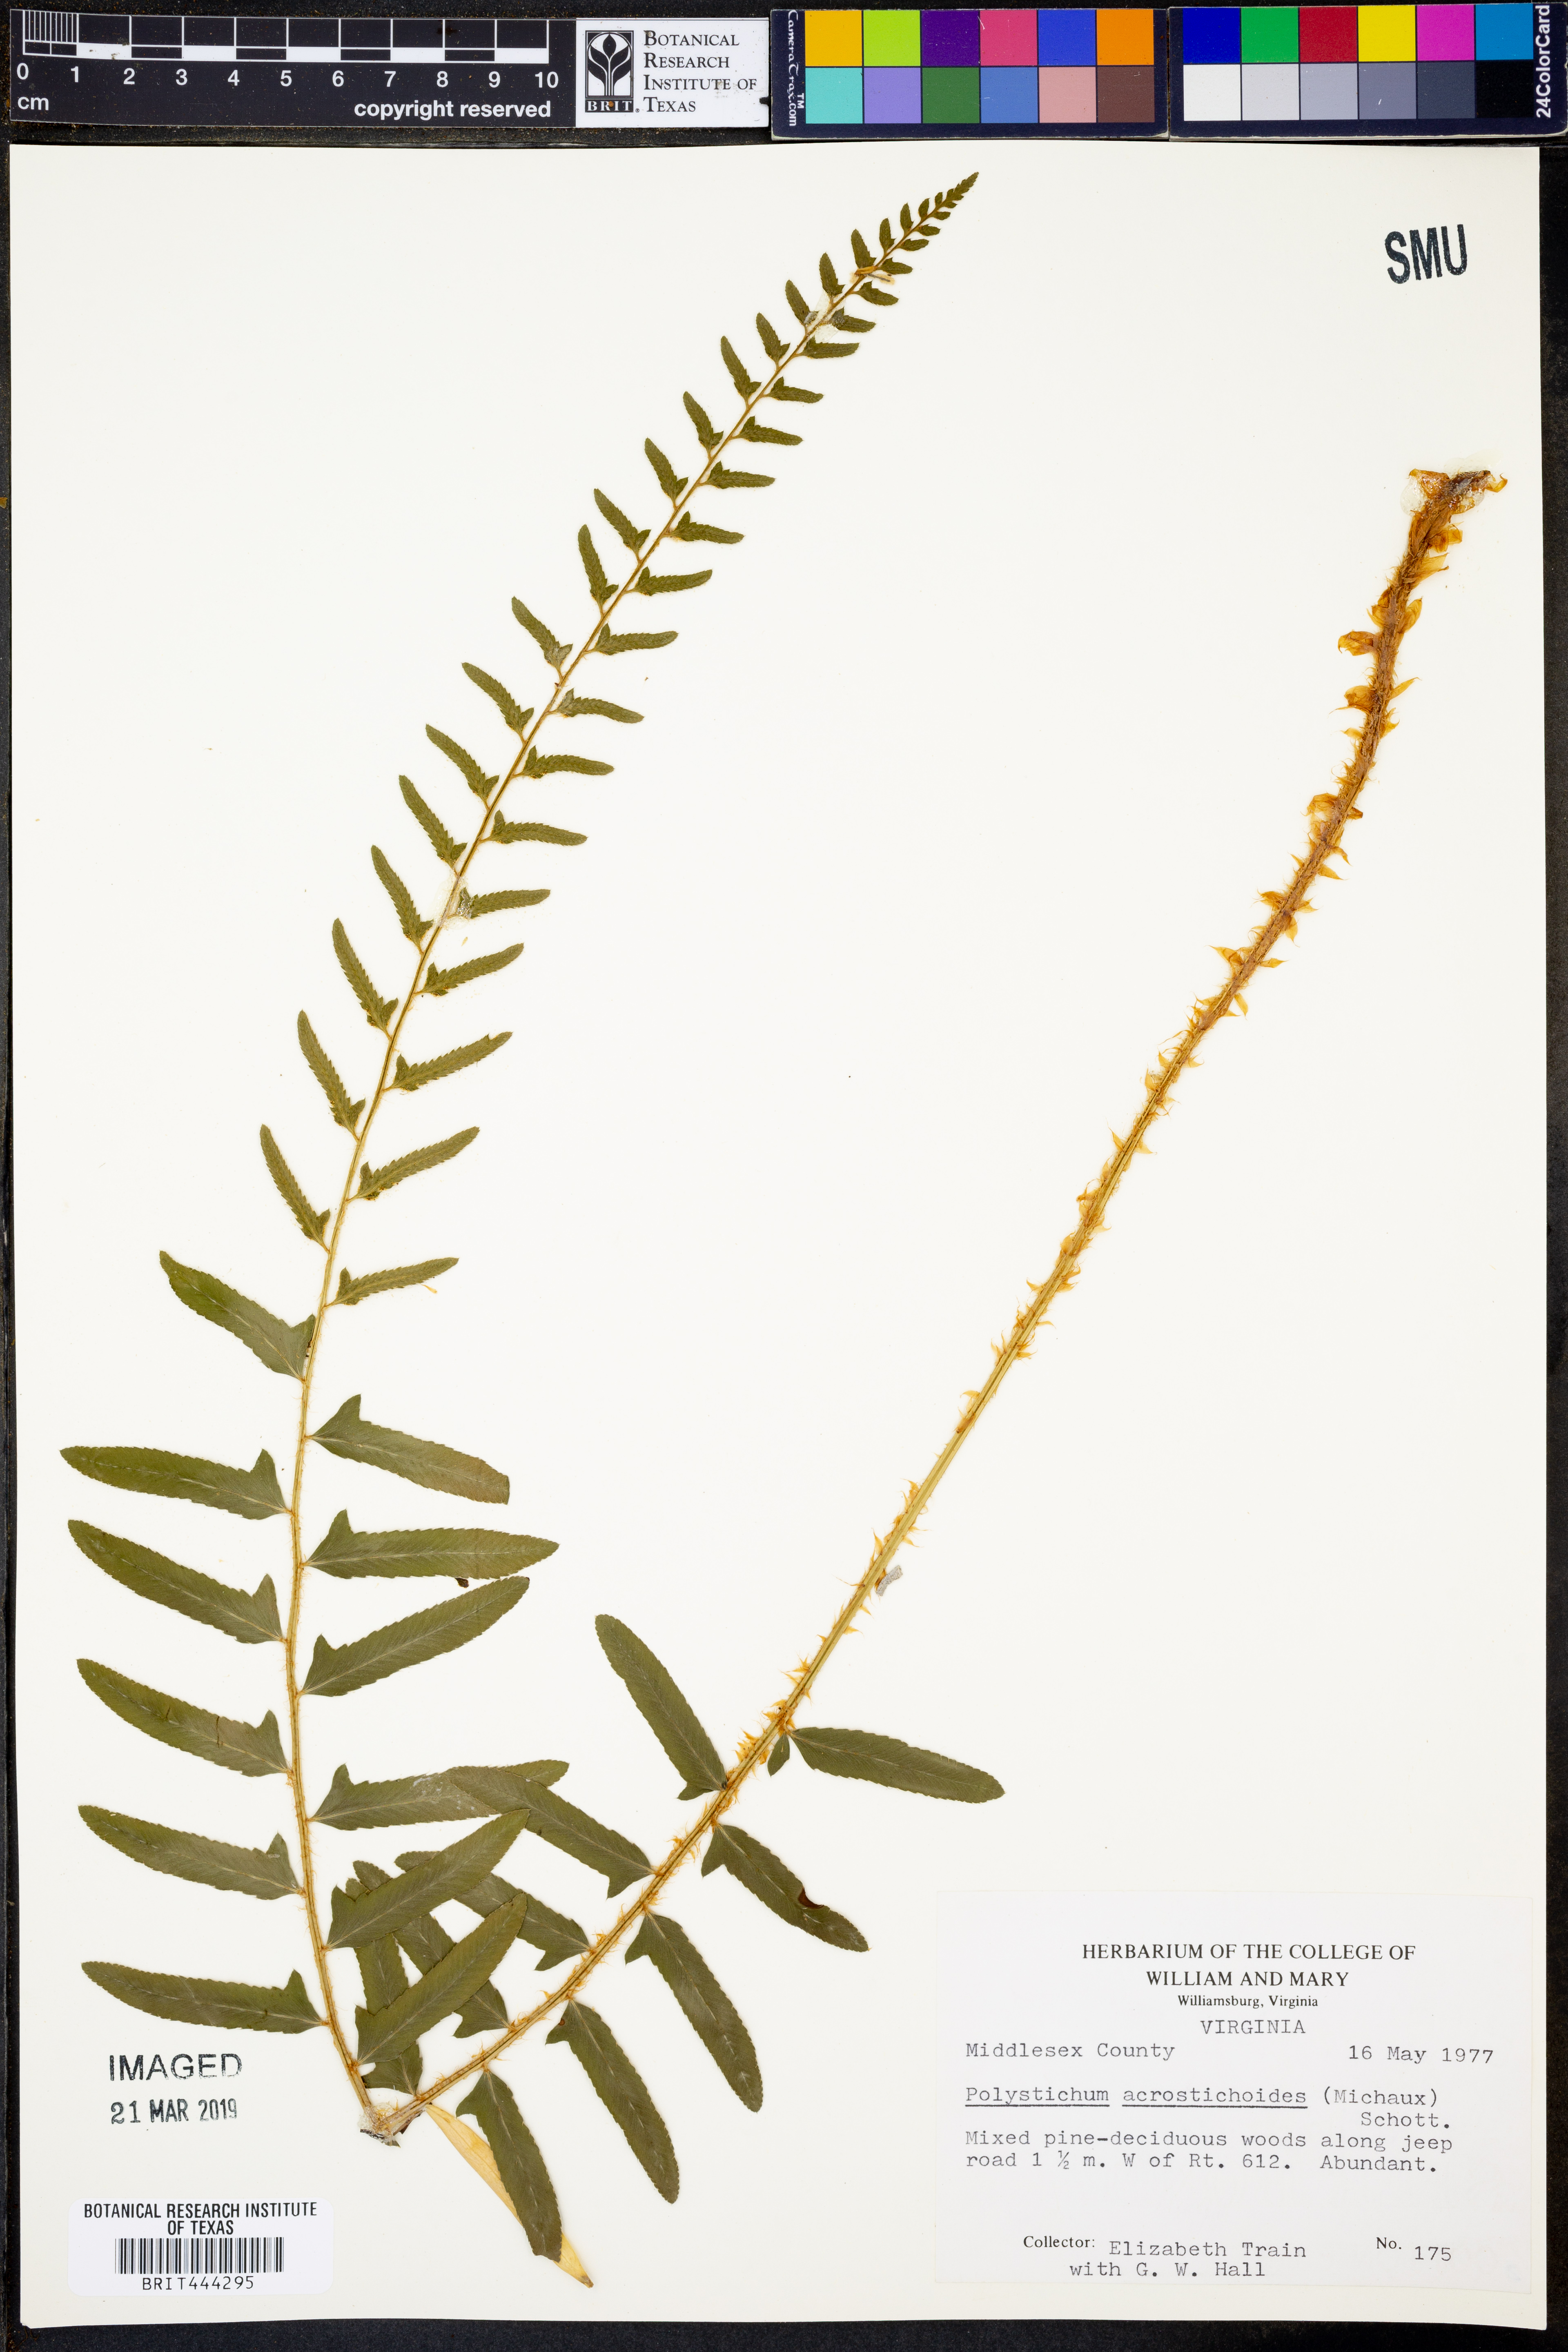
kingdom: Plantae
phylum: Tracheophyta
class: Polypodiopsida
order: Polypodiales
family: Dryopteridaceae
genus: Polystichum
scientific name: Polystichum acrostichoides
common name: Christmas fern
